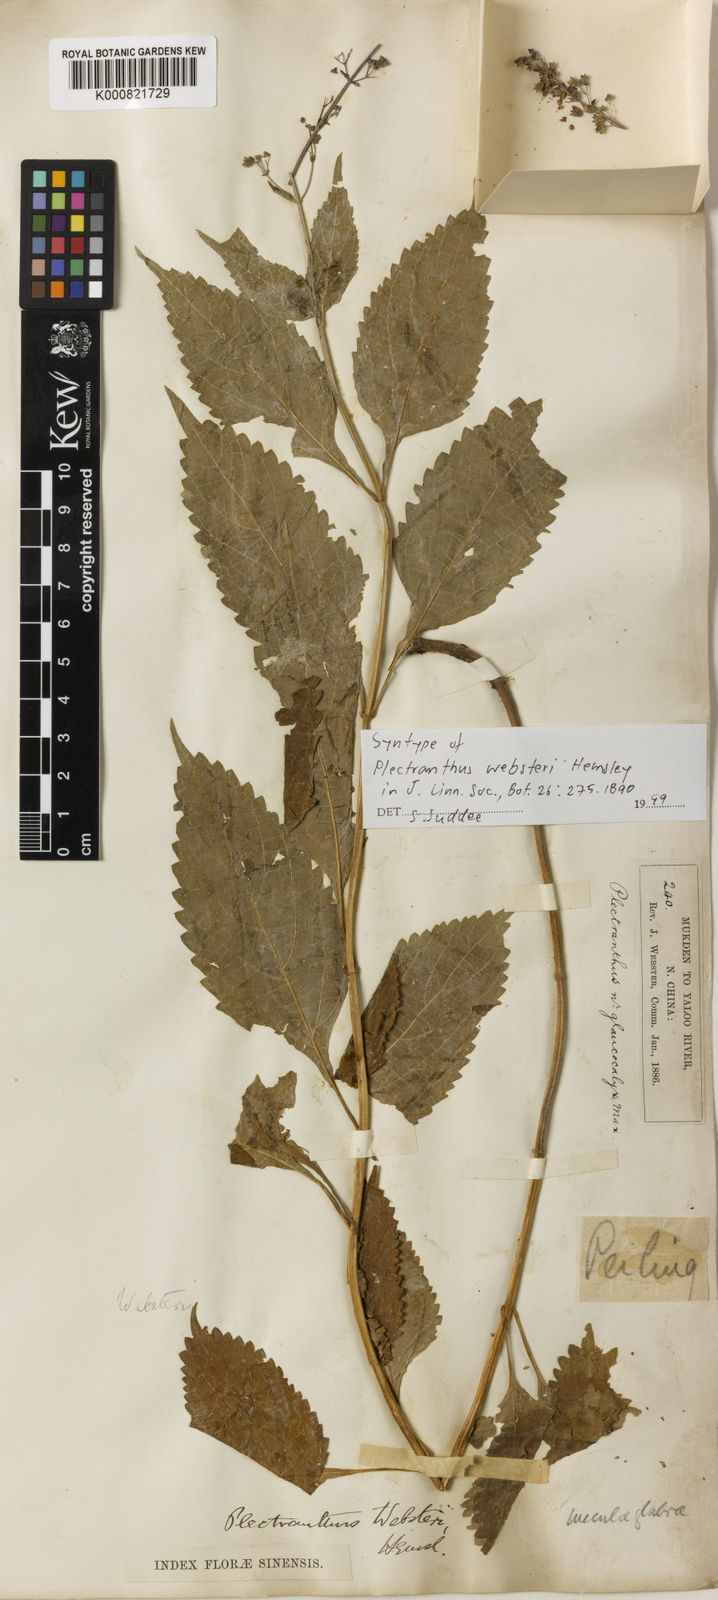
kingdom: Plantae
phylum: Tracheophyta
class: Magnoliopsida
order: Lamiales
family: Lamiaceae
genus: Isodon
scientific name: Isodon
